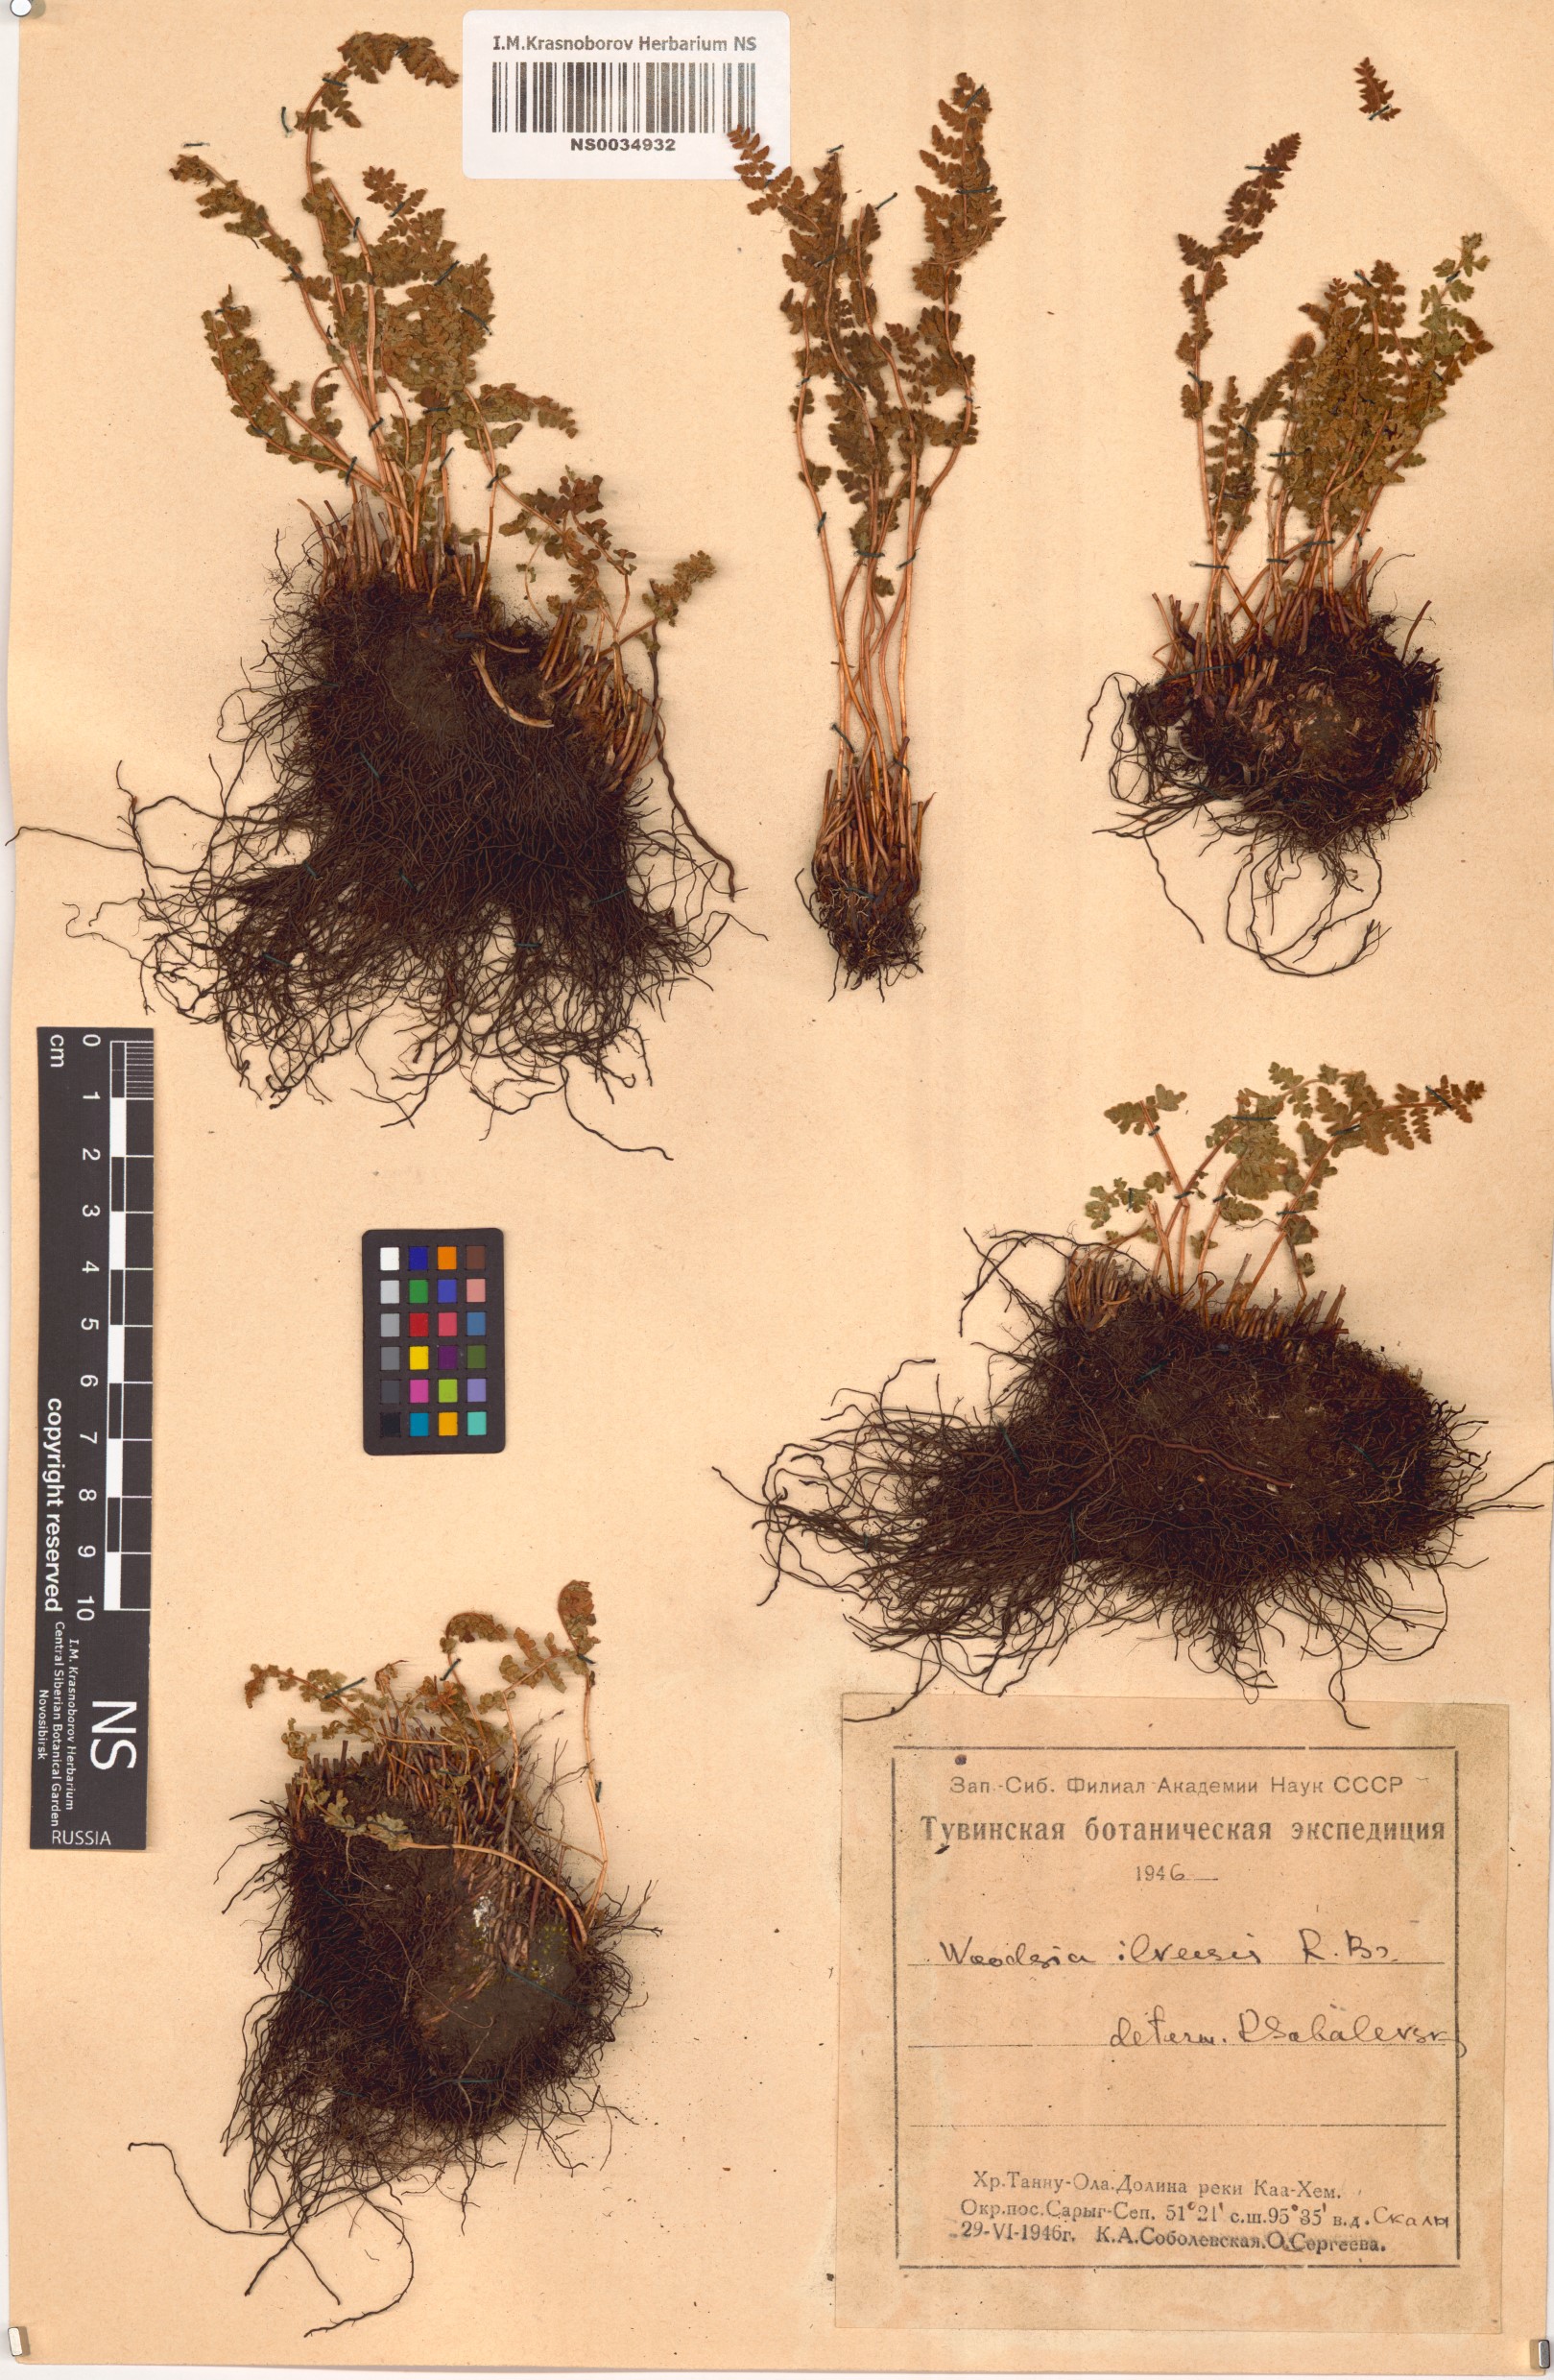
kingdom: Plantae
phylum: Tracheophyta
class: Polypodiopsida
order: Polypodiales
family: Woodsiaceae
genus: Woodsia
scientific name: Woodsia ilvensis
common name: Fragrant woodsia
